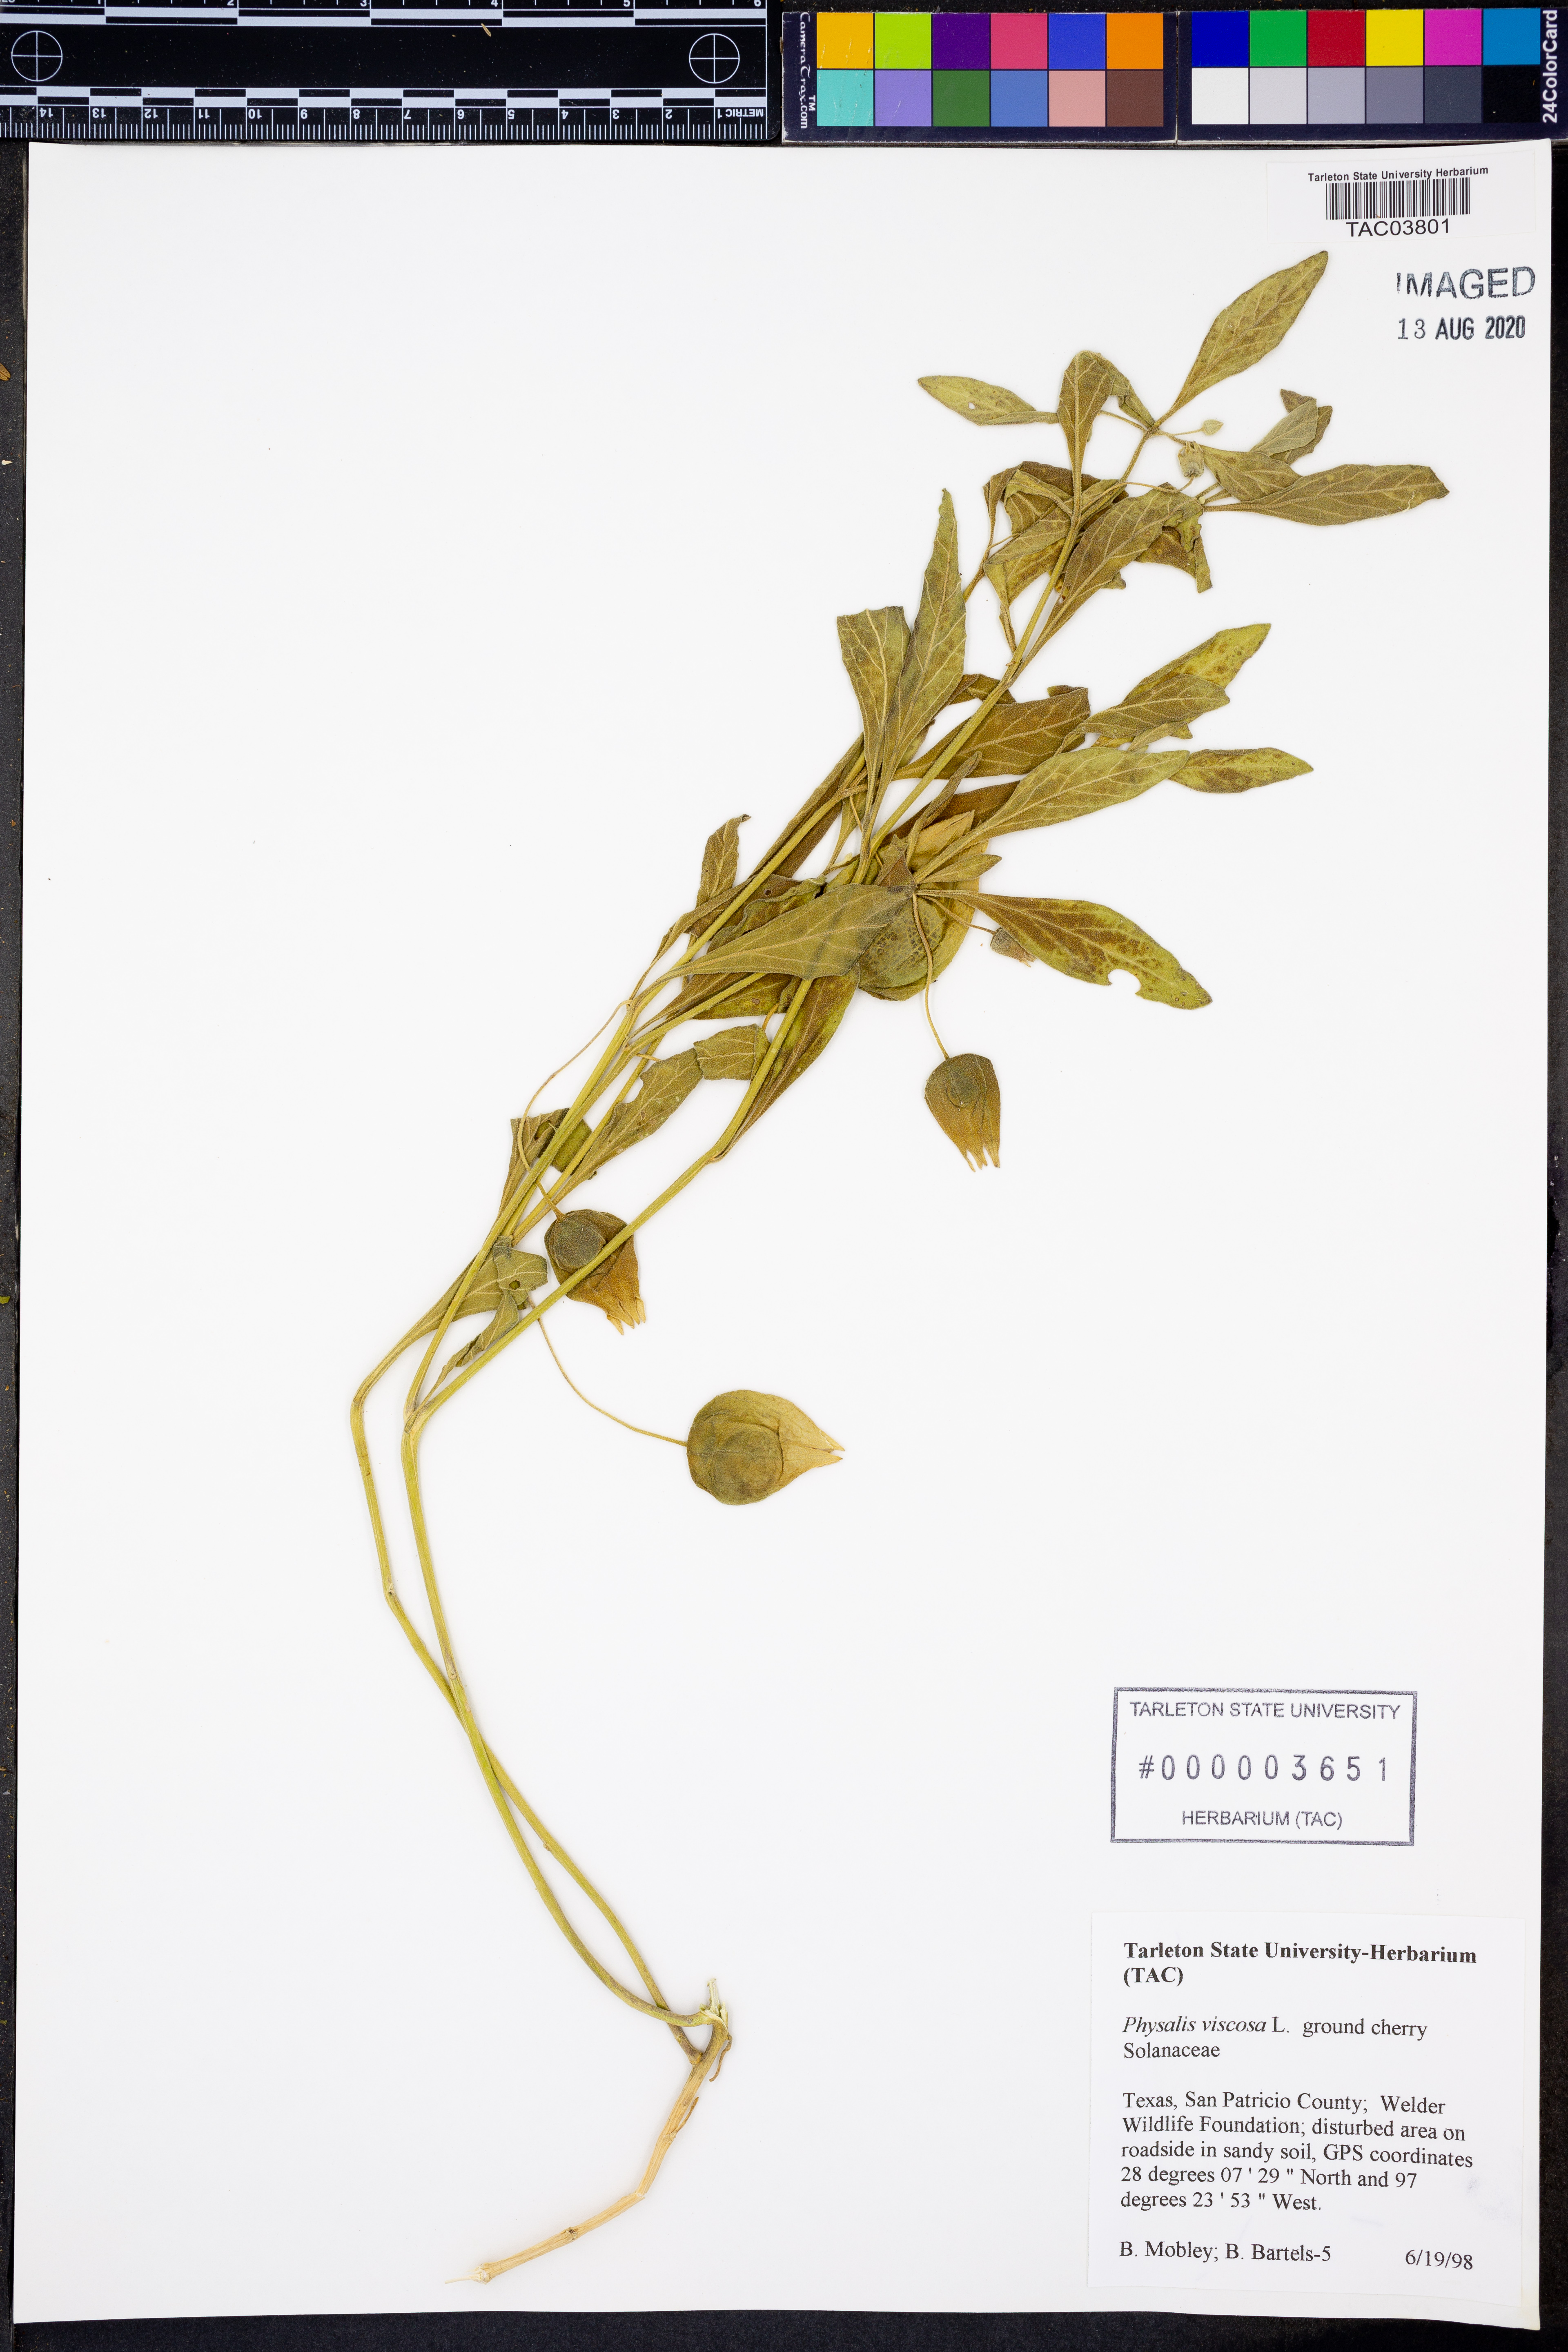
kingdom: Plantae
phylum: Tracheophyta
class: Magnoliopsida
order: Solanales
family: Solanaceae
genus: Physalis
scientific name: Physalis viscosa
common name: Stellate ground-cherry
